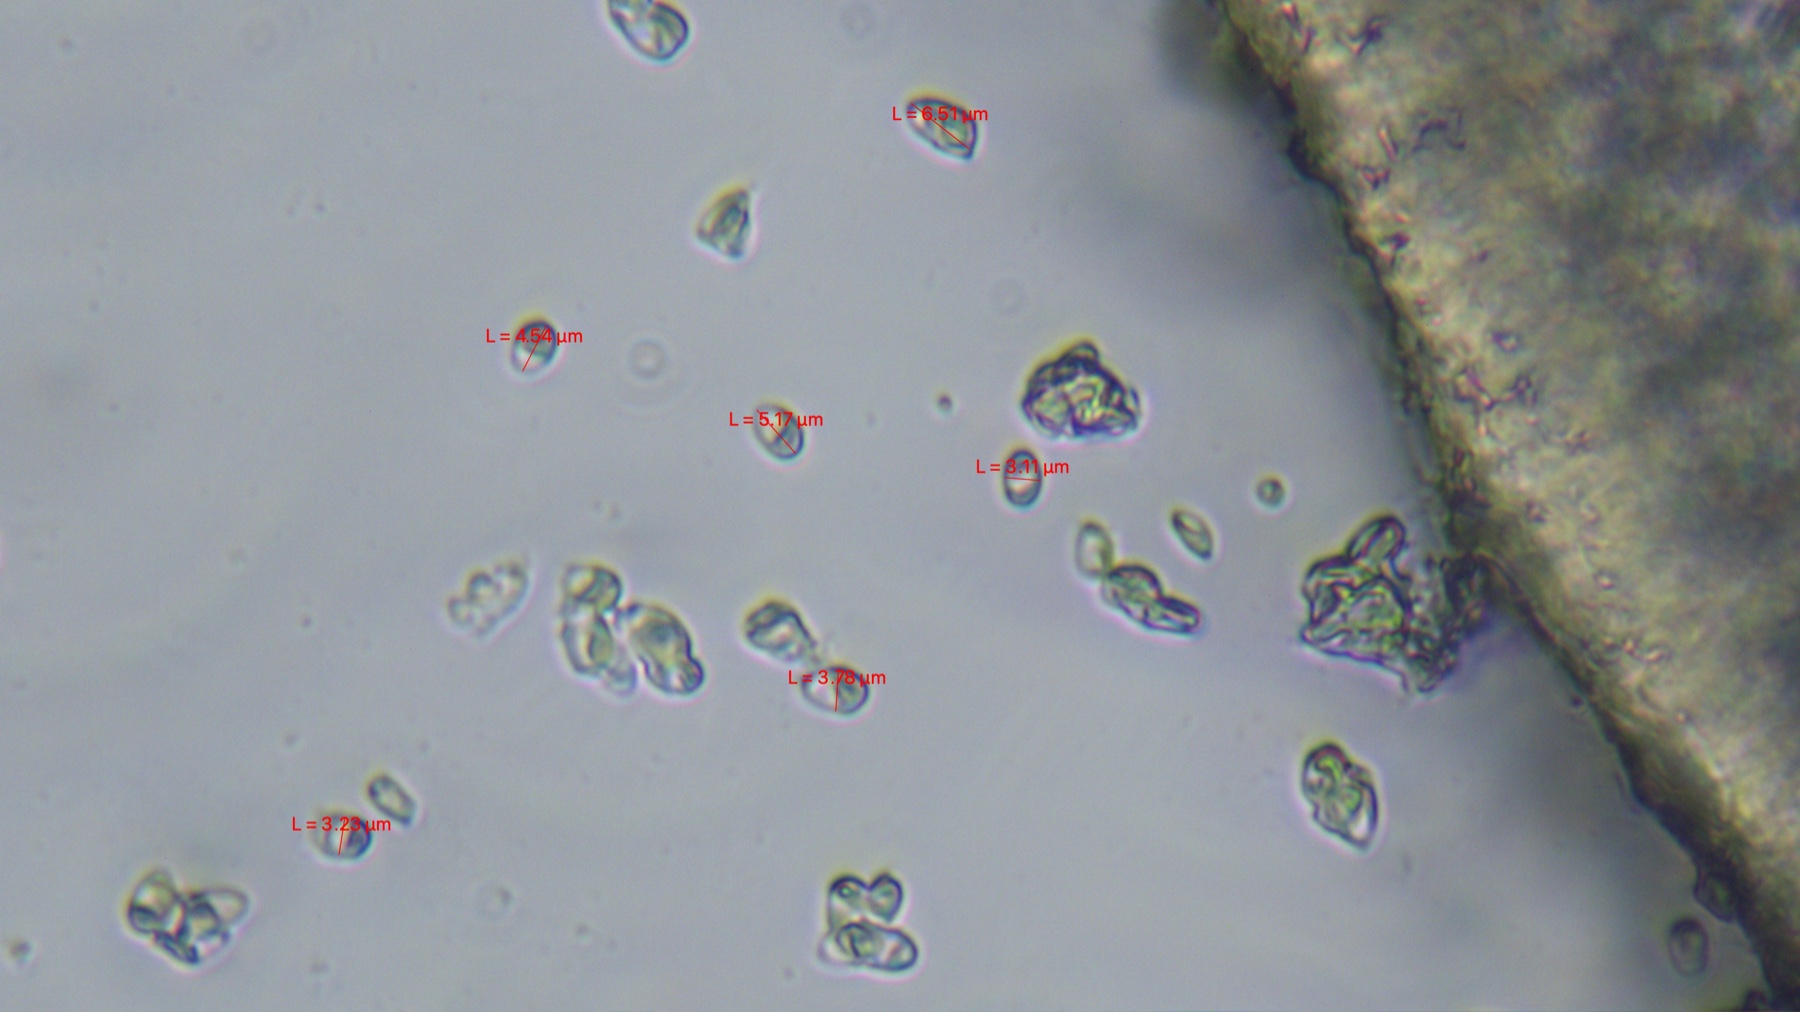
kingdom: Fungi
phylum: Basidiomycota
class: Agaricomycetes
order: Agaricales
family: Lyophyllaceae
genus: Calocybe
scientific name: Calocybe carnea
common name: rosa fagerhat
